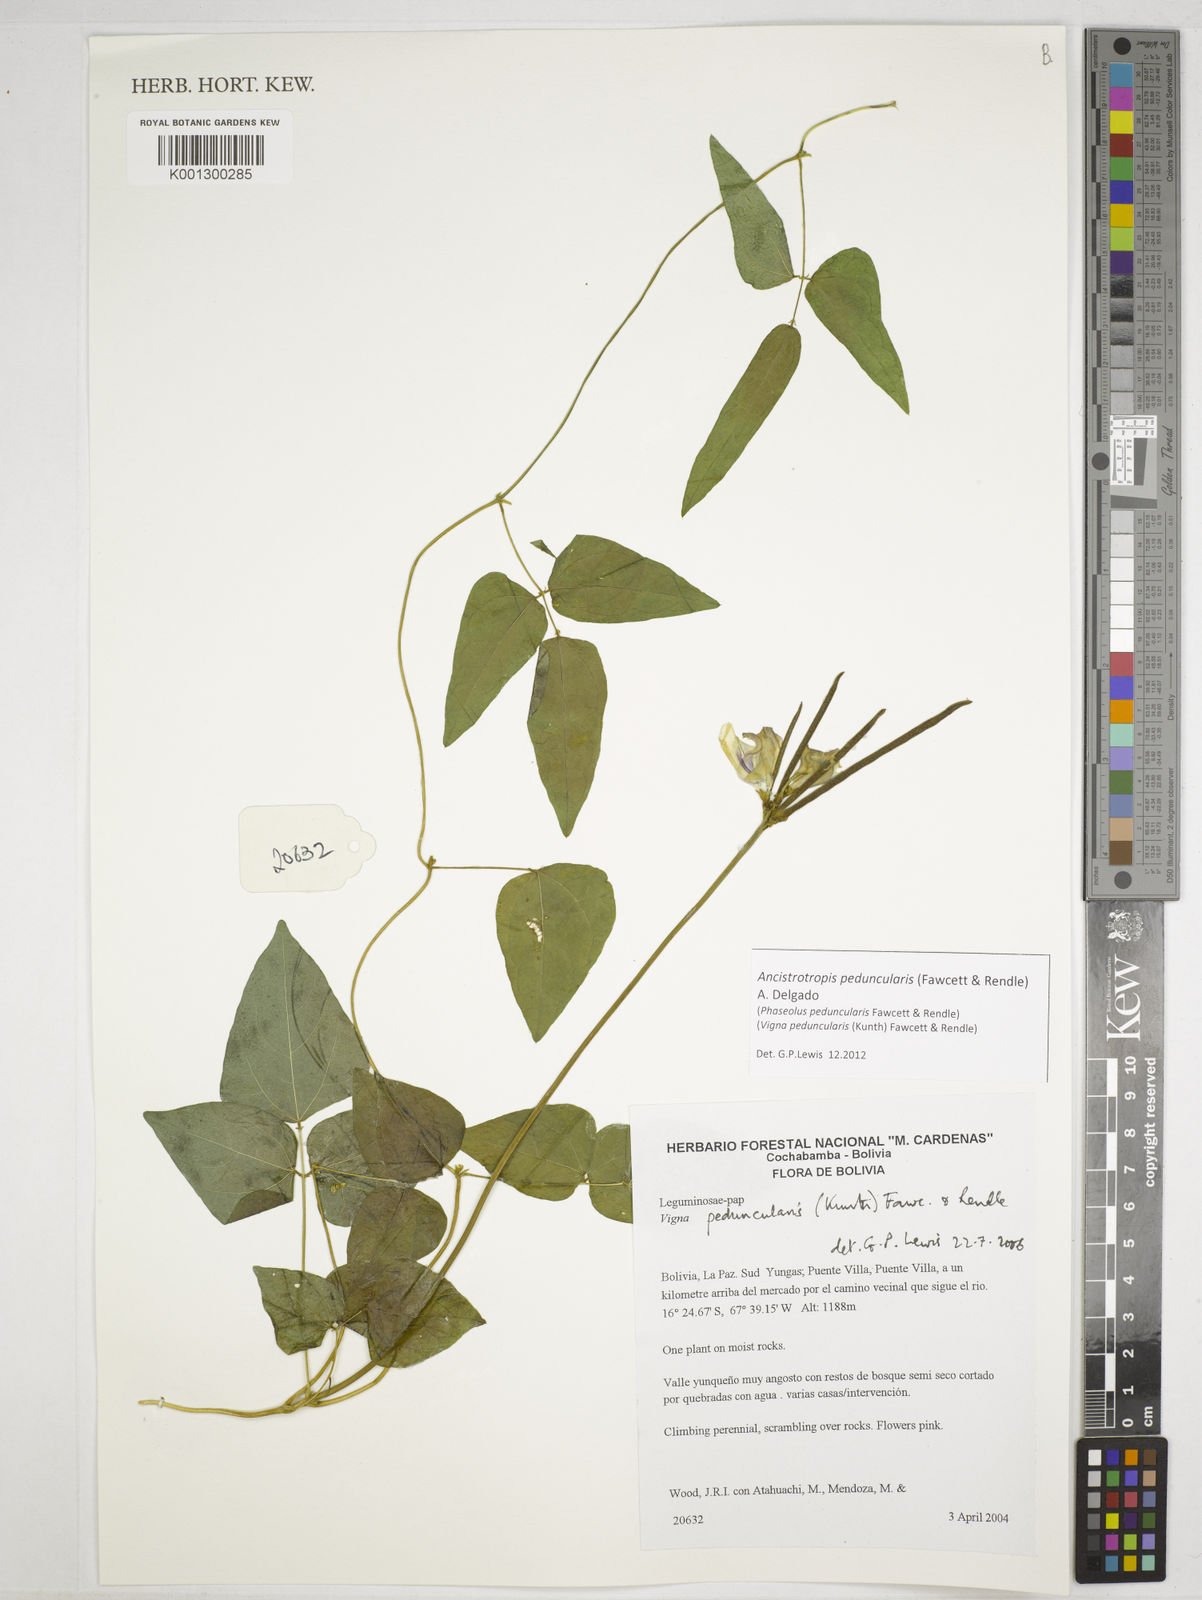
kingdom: Plantae
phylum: Tracheophyta
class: Magnoliopsida
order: Fabales
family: Fabaceae
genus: Ancistrotropis
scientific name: Ancistrotropis peduncularis
